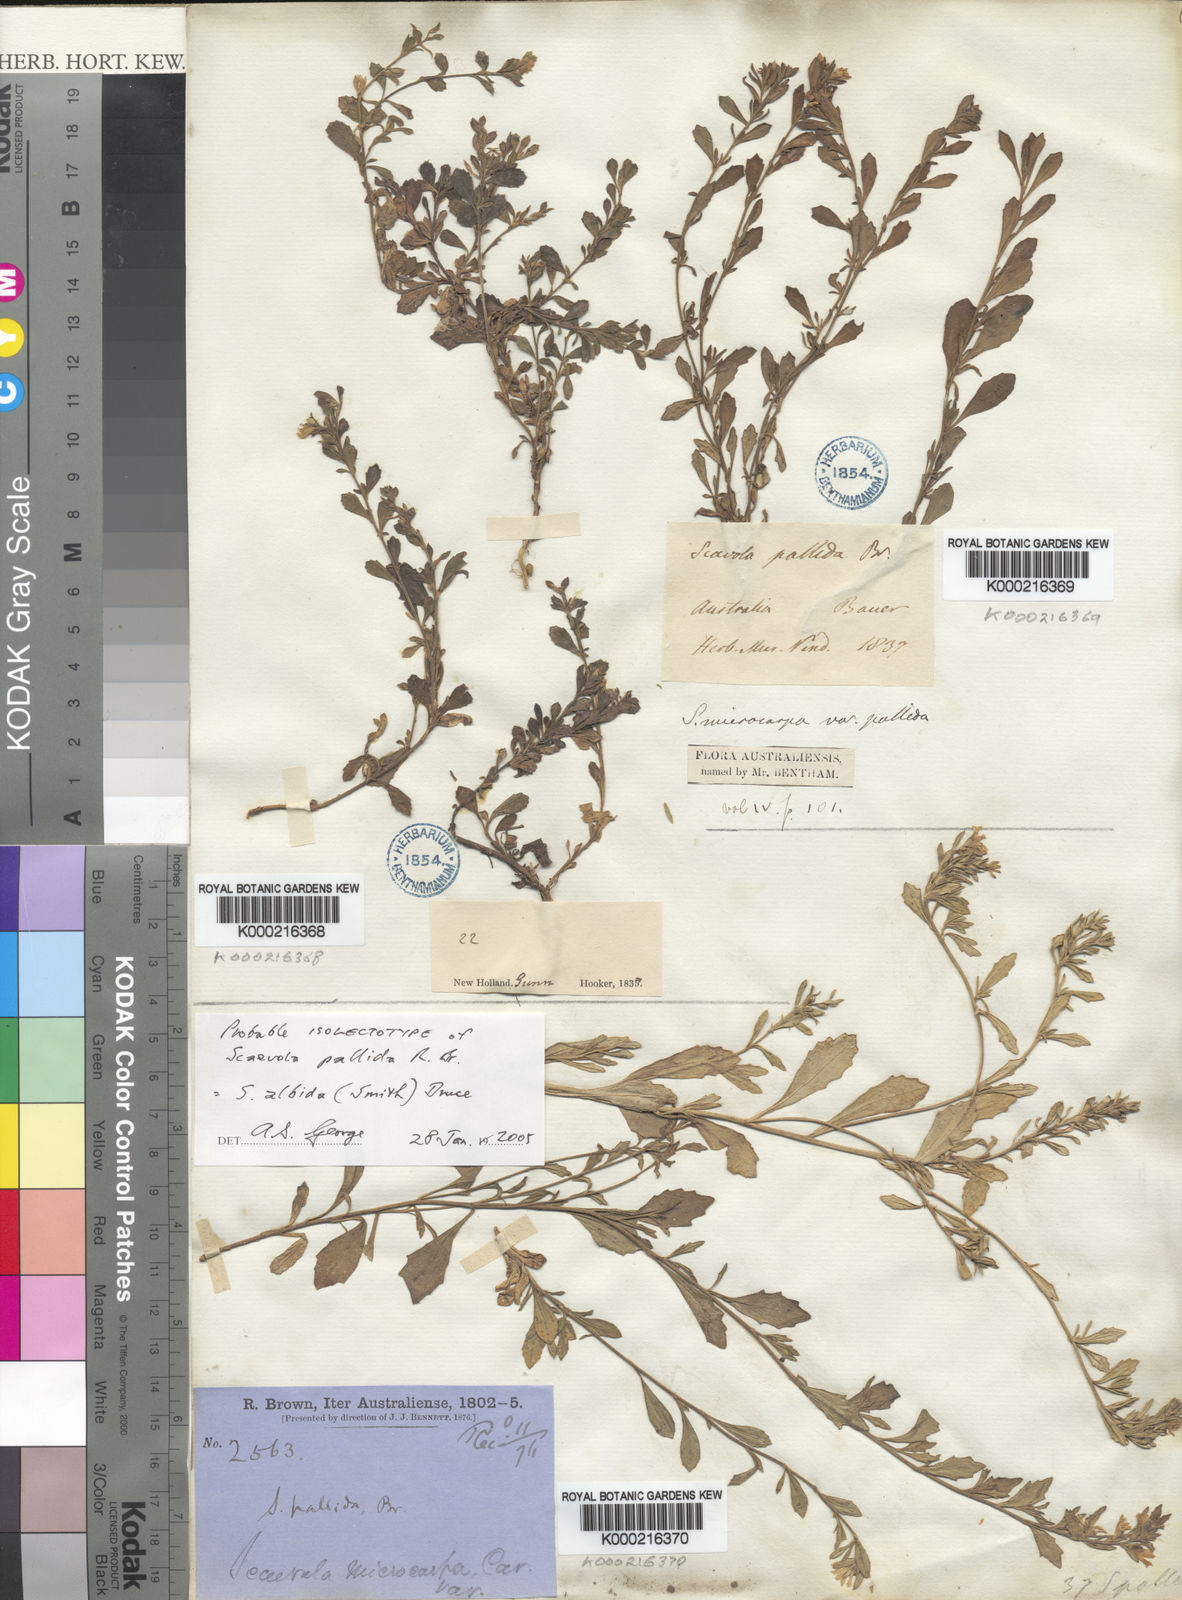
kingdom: Plantae
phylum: Tracheophyta
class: Magnoliopsida
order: Asterales
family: Goodeniaceae
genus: Scaevola
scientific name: Scaevola albida
